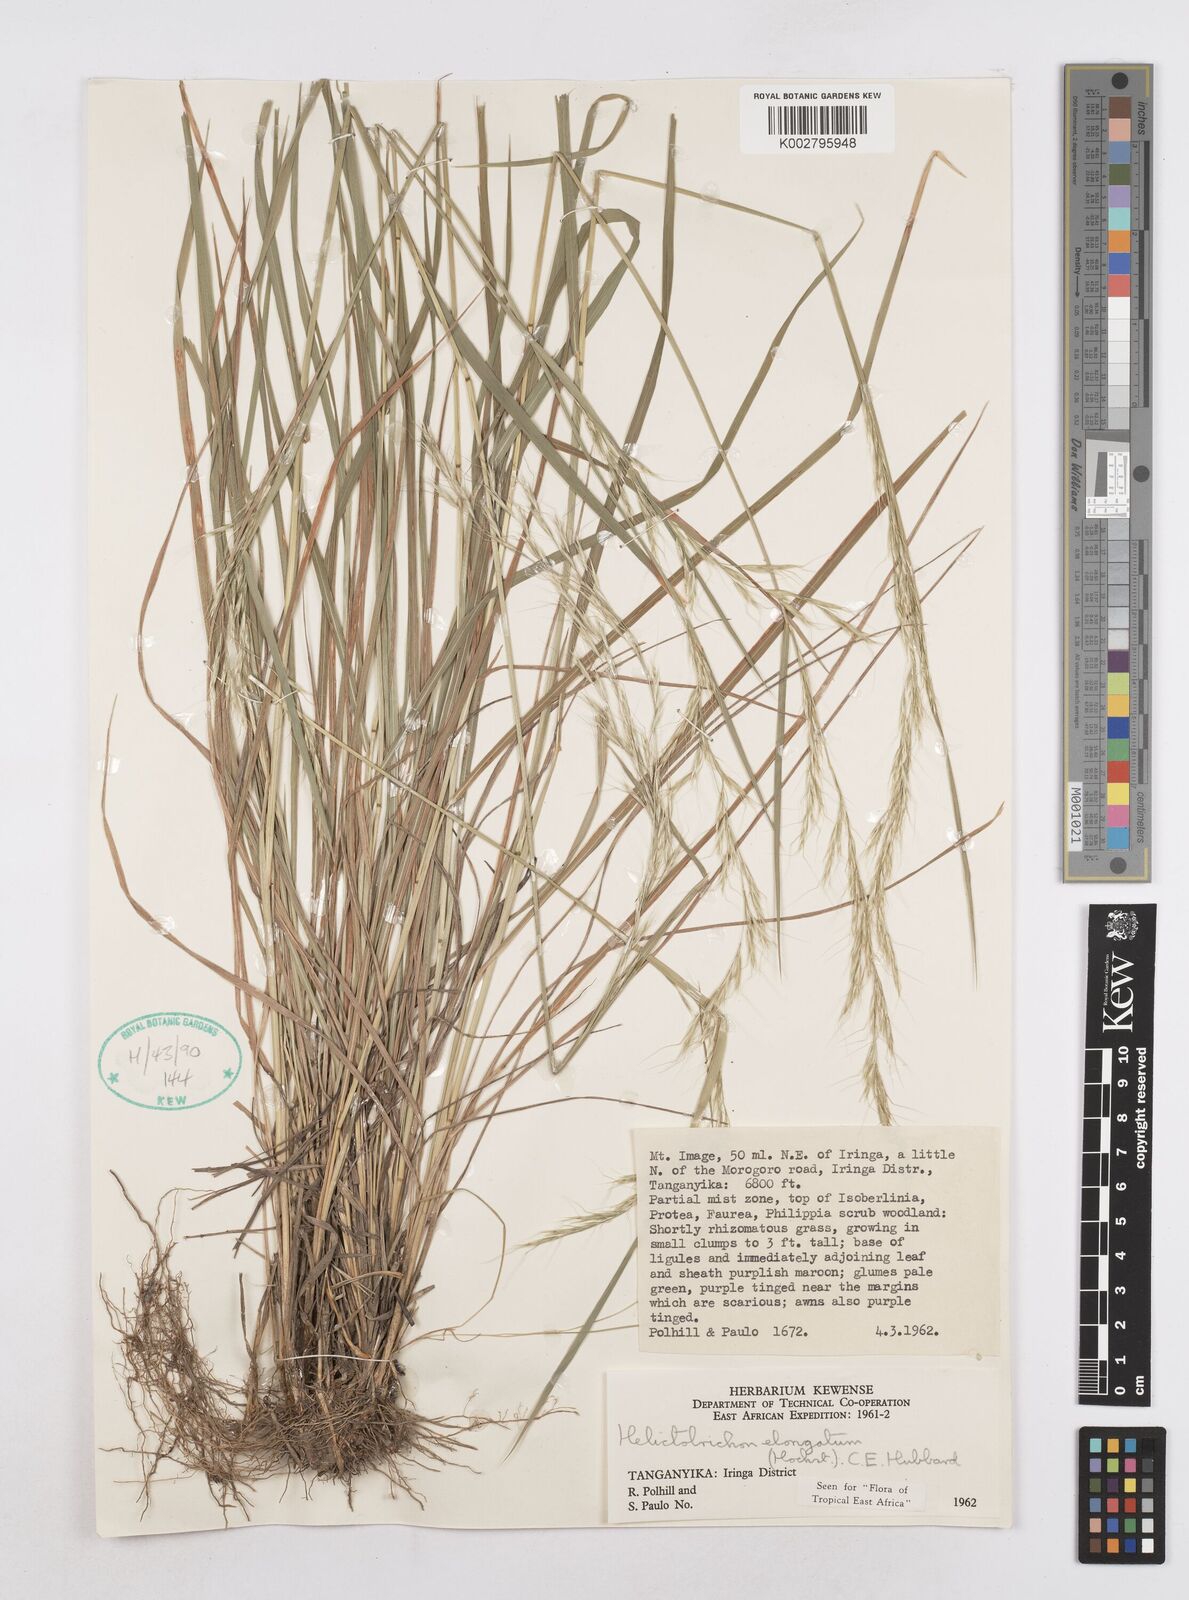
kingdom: Plantae
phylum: Tracheophyta
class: Liliopsida
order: Poales
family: Poaceae
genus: Trisetopsis
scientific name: Trisetopsis elongata
